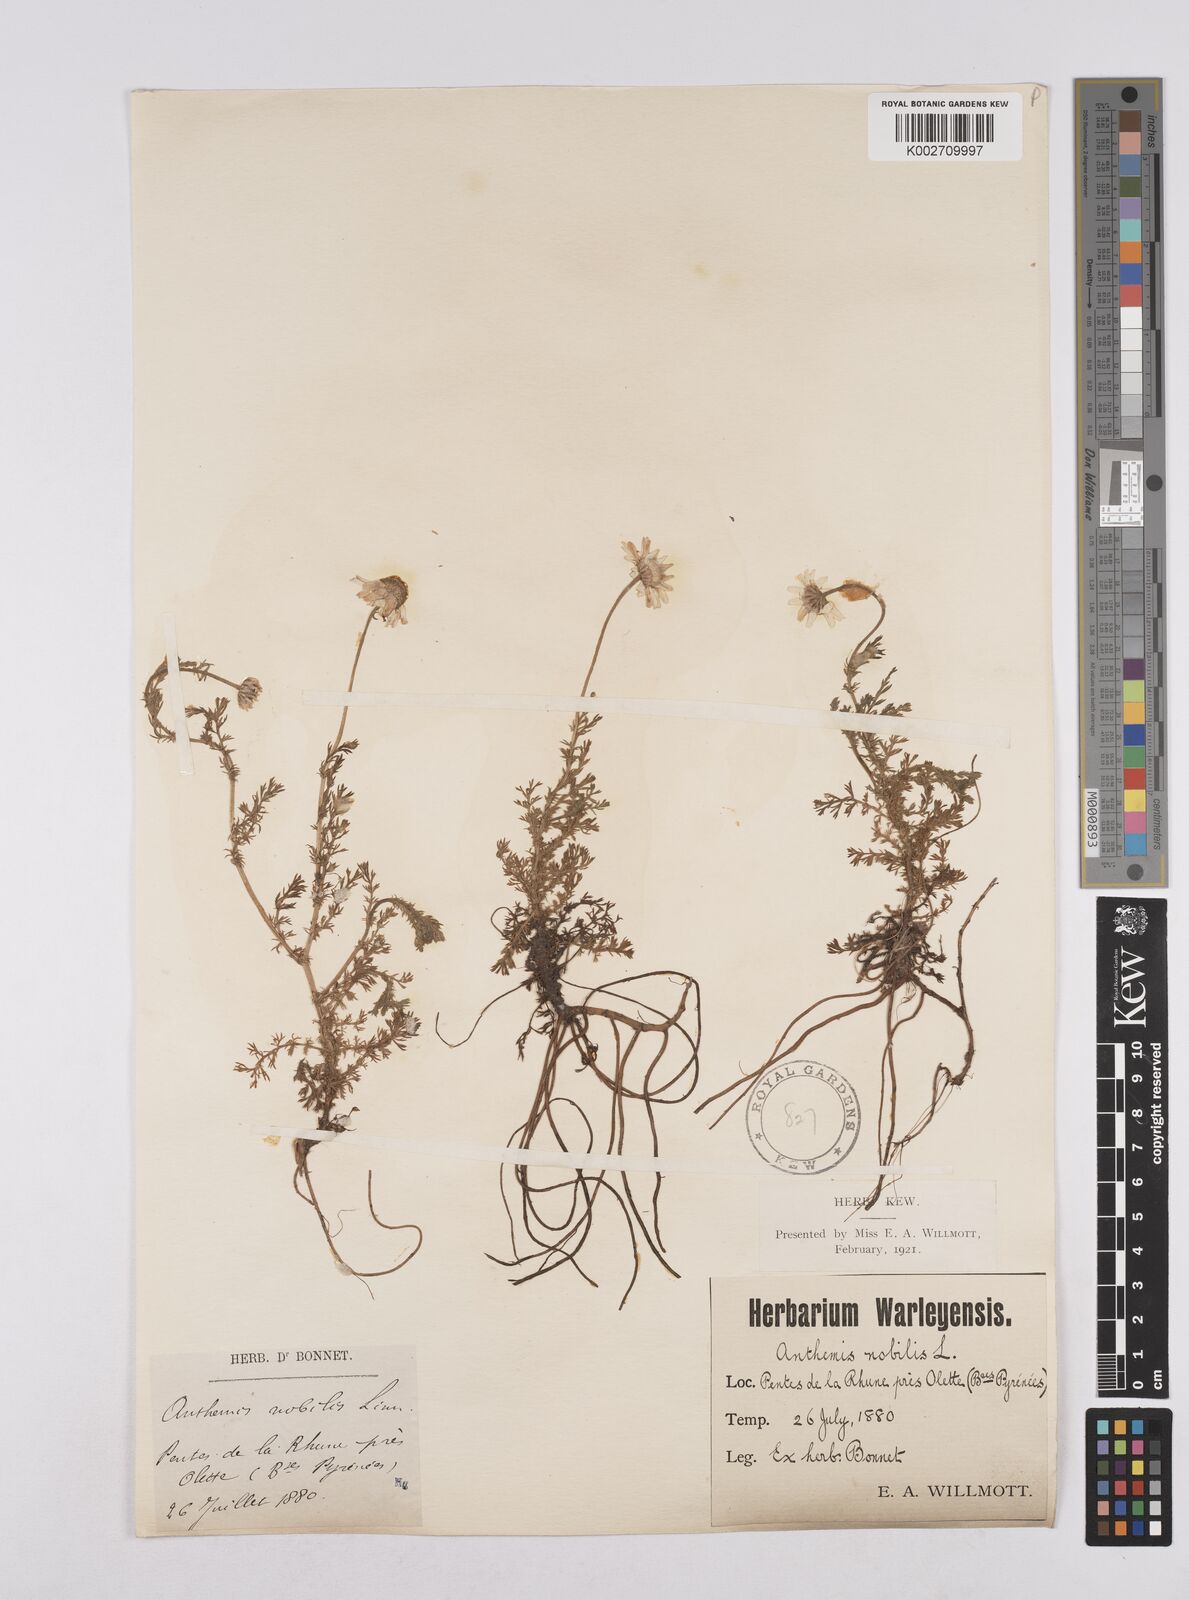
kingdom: Plantae
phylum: Tracheophyta
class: Magnoliopsida
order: Asterales
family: Asteraceae
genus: Chamaemelum
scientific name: Chamaemelum nobile
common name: Roman chamomile
